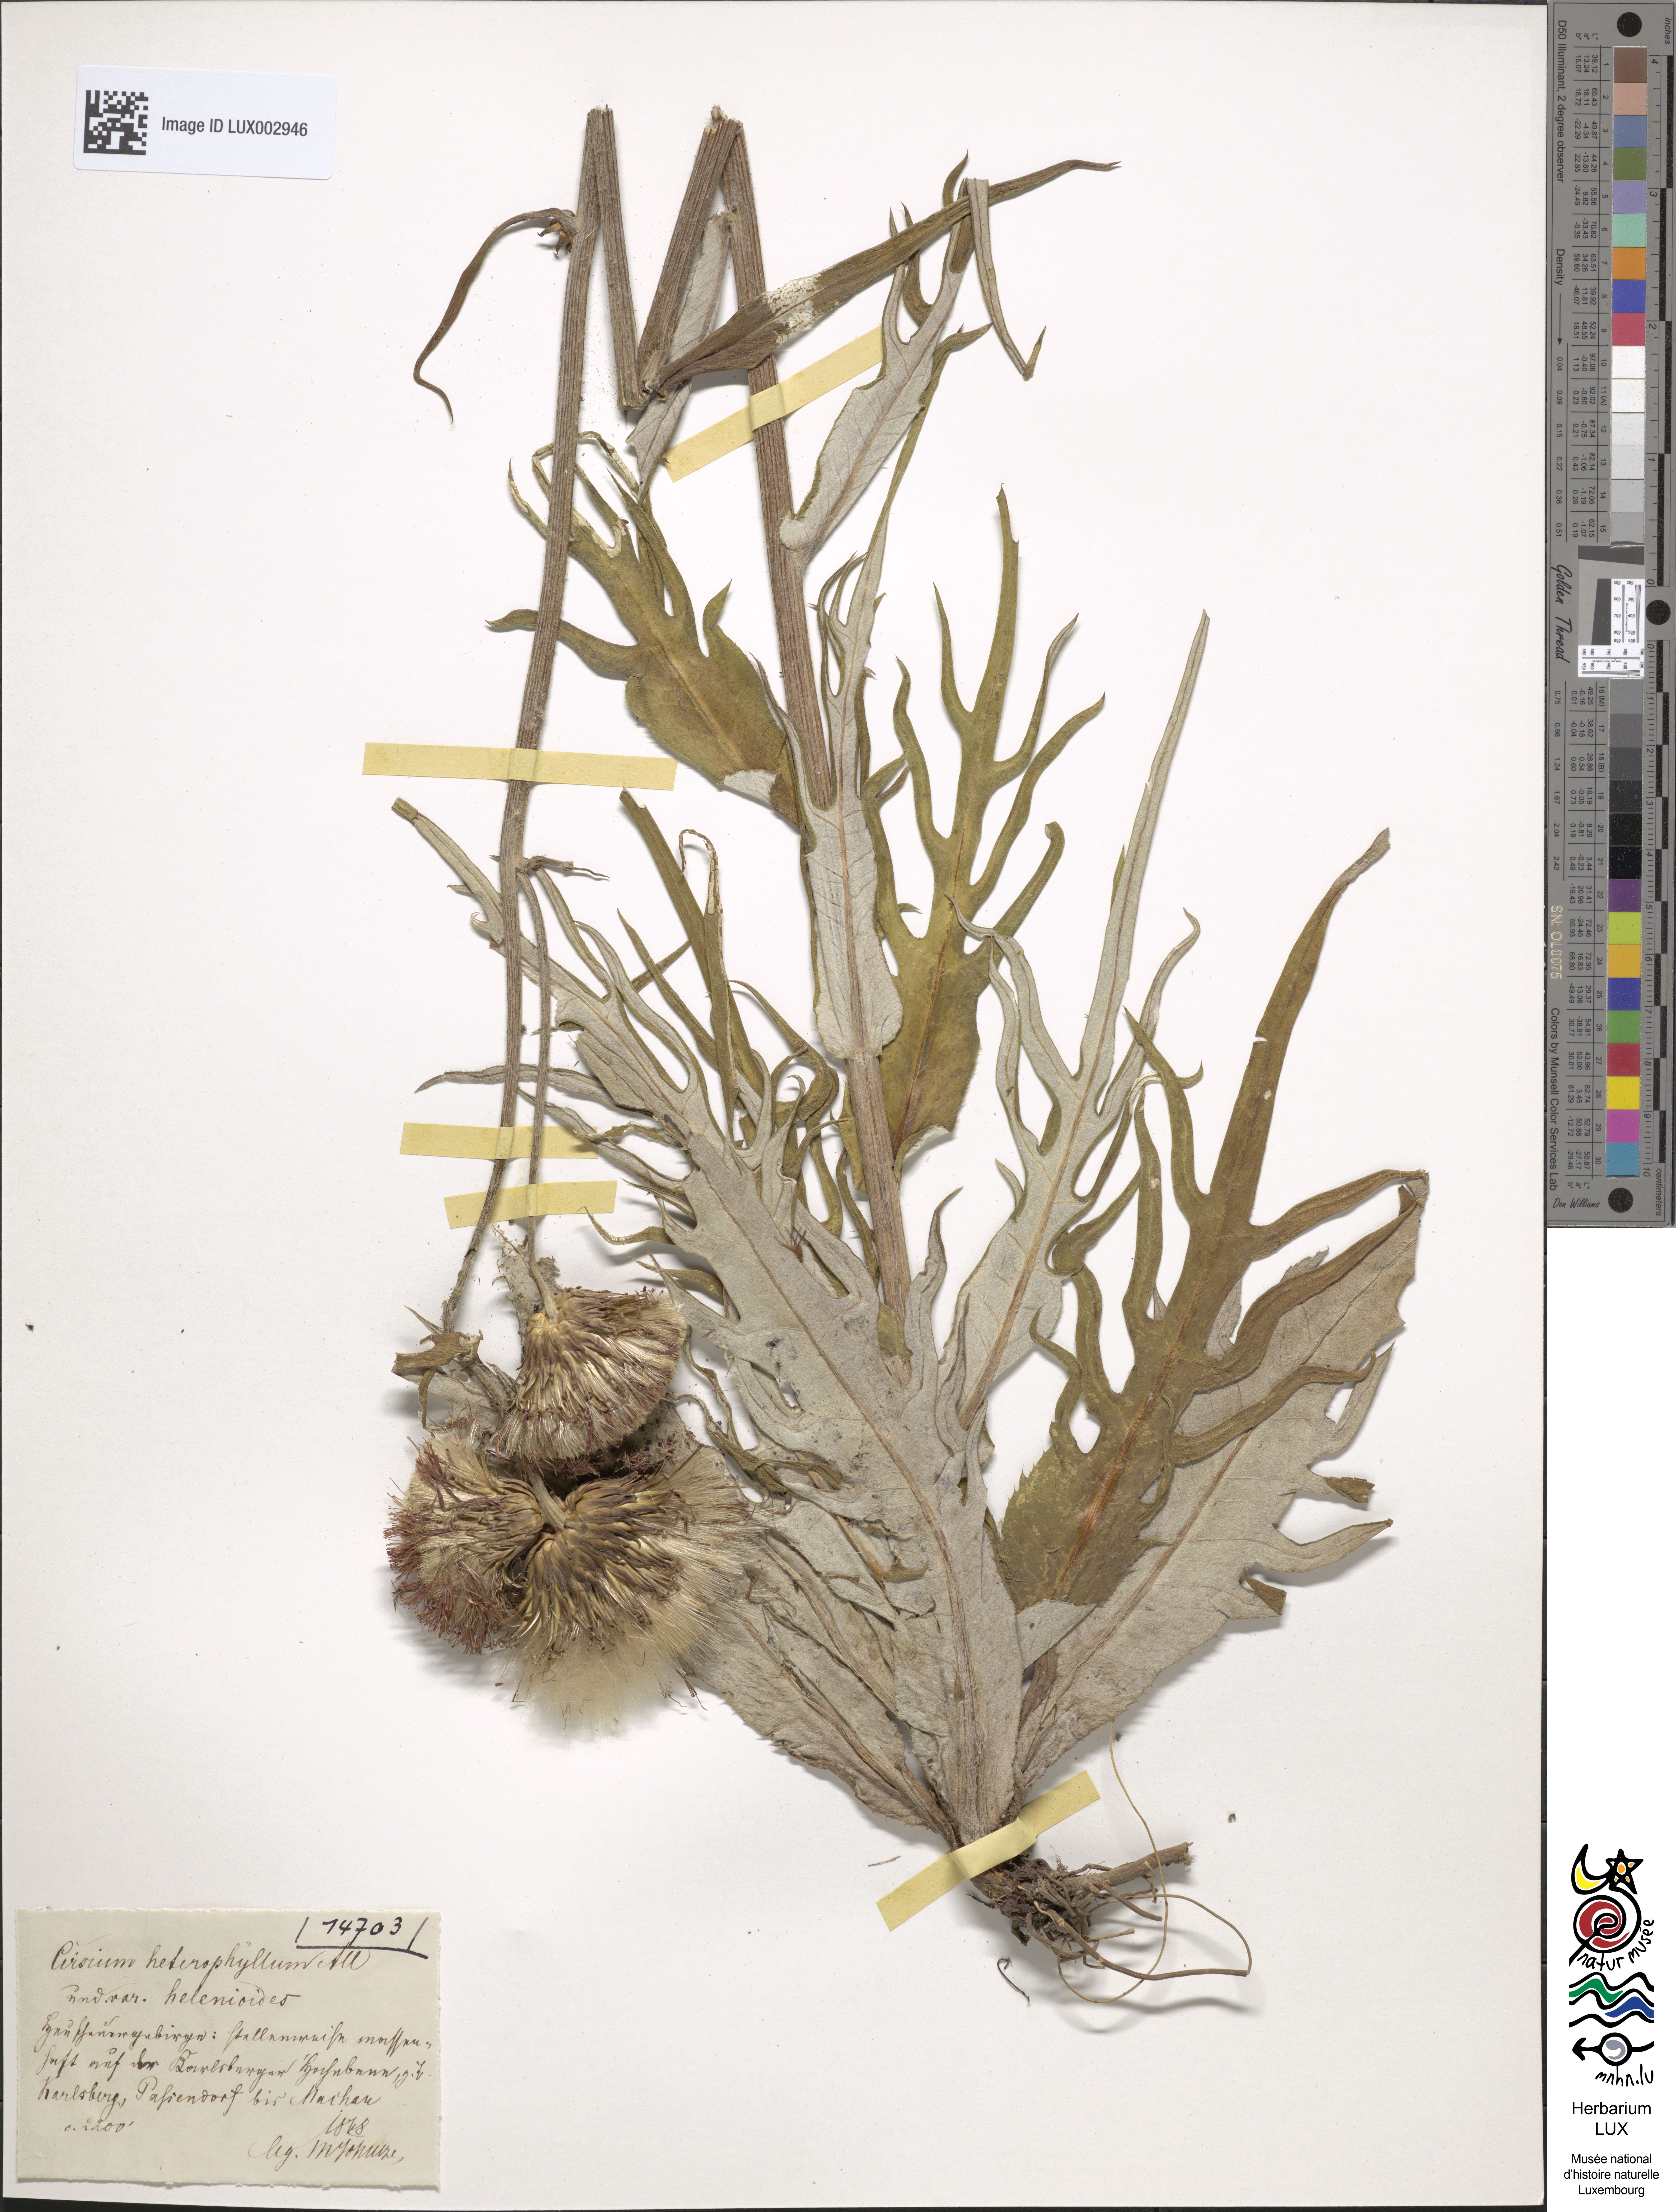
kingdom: Plantae
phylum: Tracheophyta
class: Magnoliopsida
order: Asterales
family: Asteraceae
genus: Cirsium
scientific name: Cirsium heterophyllum
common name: Melancholy thistle
